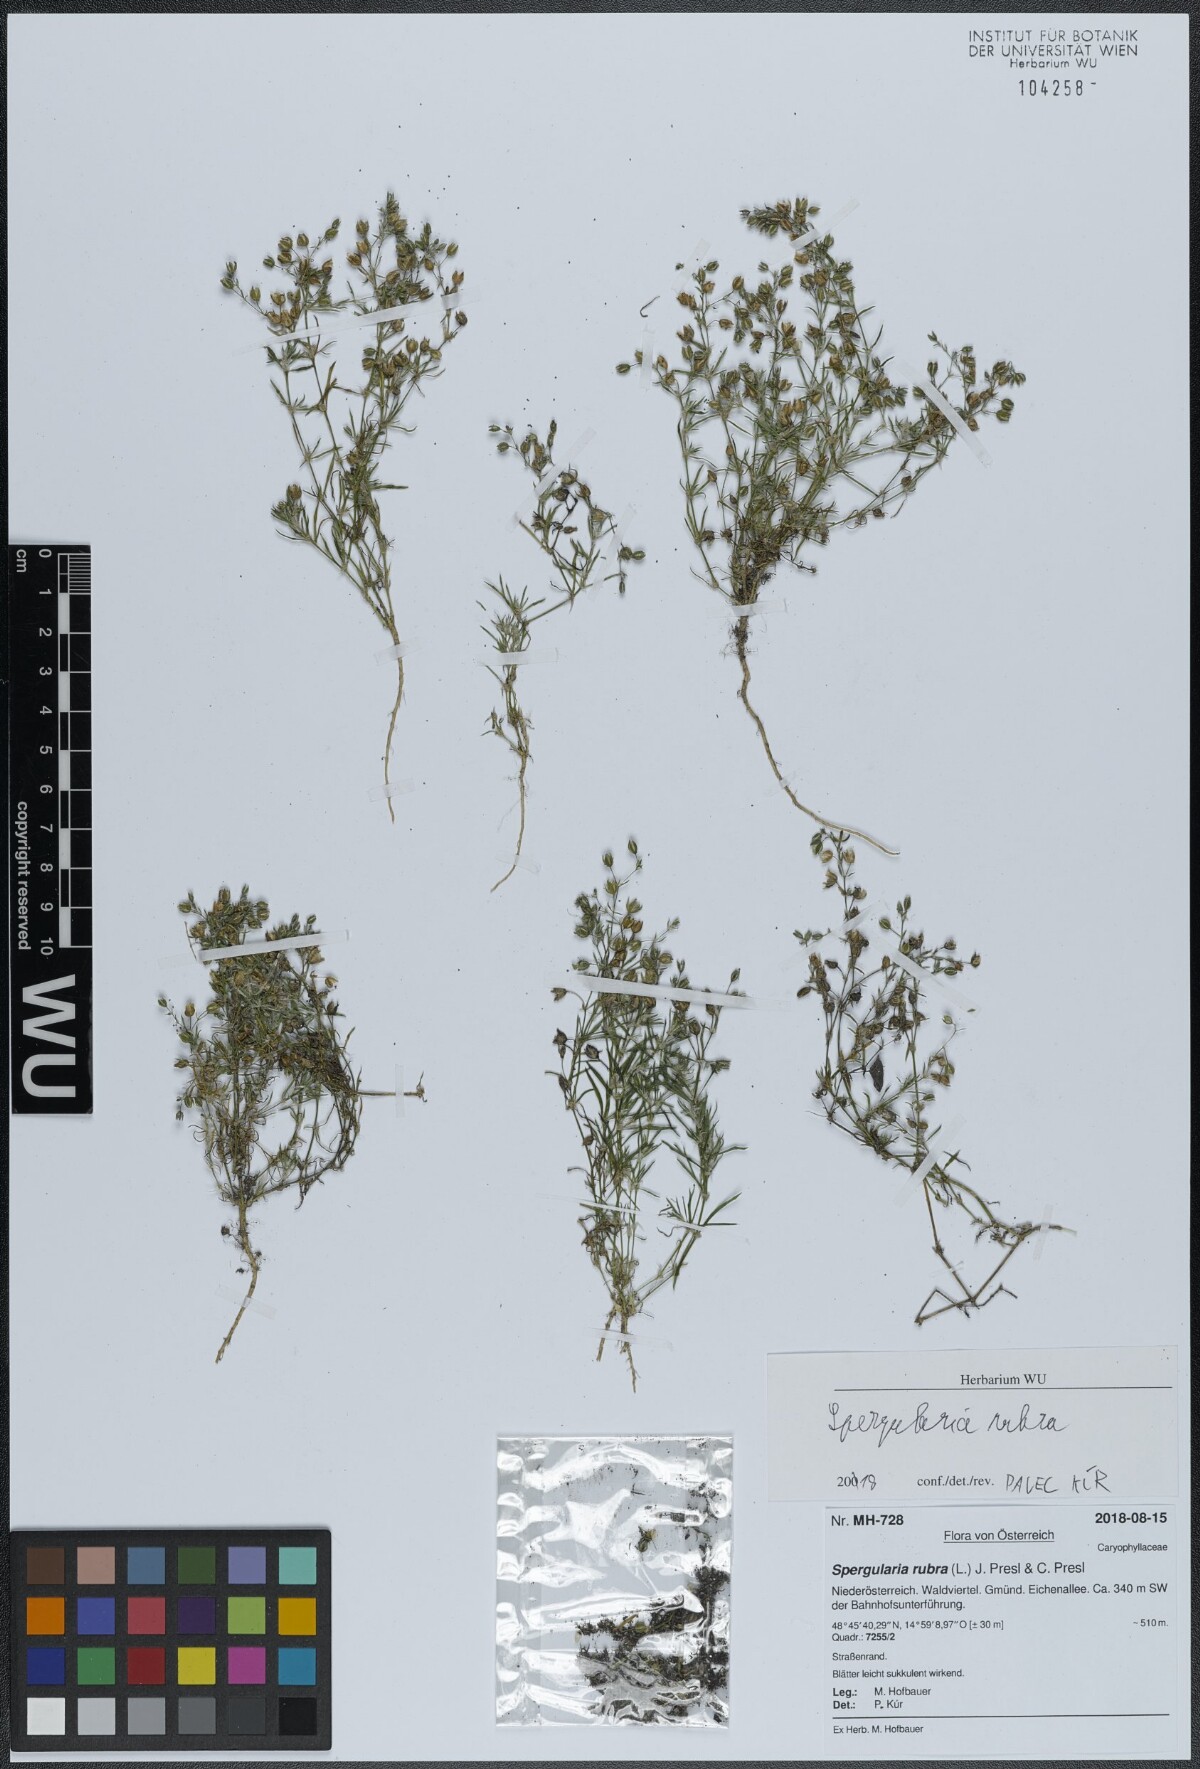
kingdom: Plantae
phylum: Tracheophyta
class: Magnoliopsida
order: Caryophyllales
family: Caryophyllaceae
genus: Spergularia
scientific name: Spergularia rubra
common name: Red sand-spurrey
